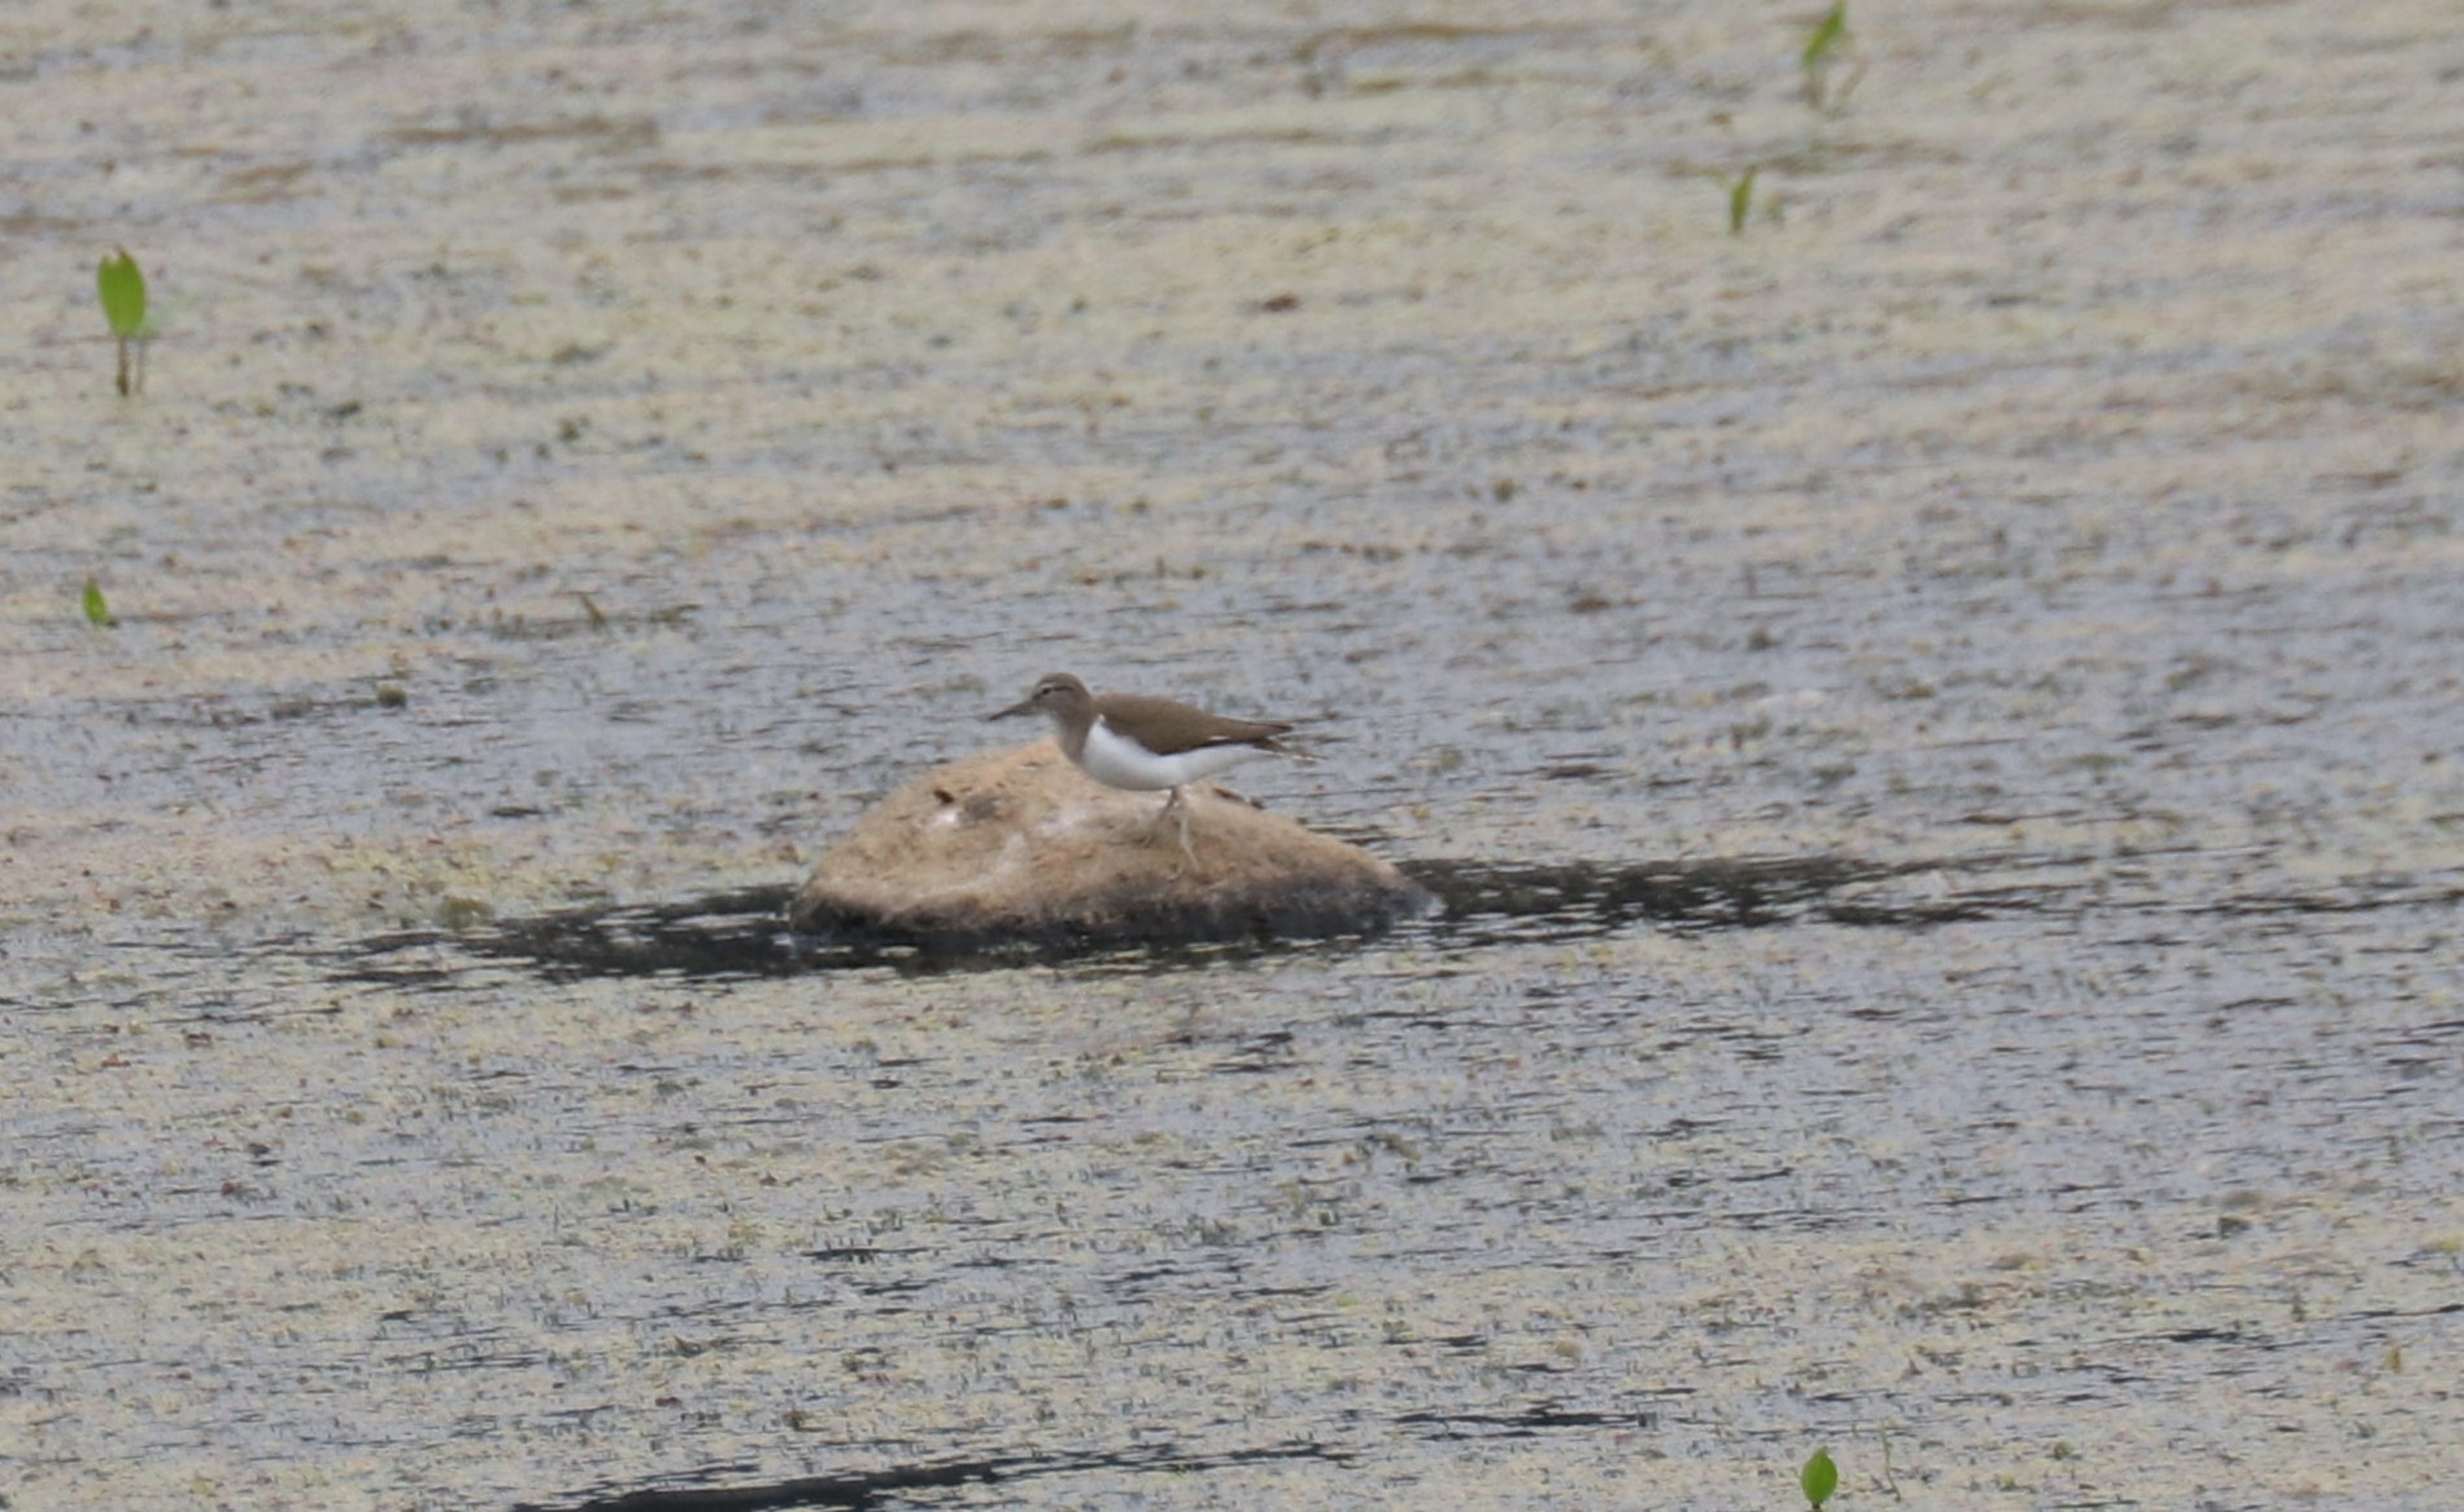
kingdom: Animalia
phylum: Chordata
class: Aves
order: Charadriiformes
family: Scolopacidae
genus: Actitis
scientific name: Actitis hypoleucos
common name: Mudderklire
